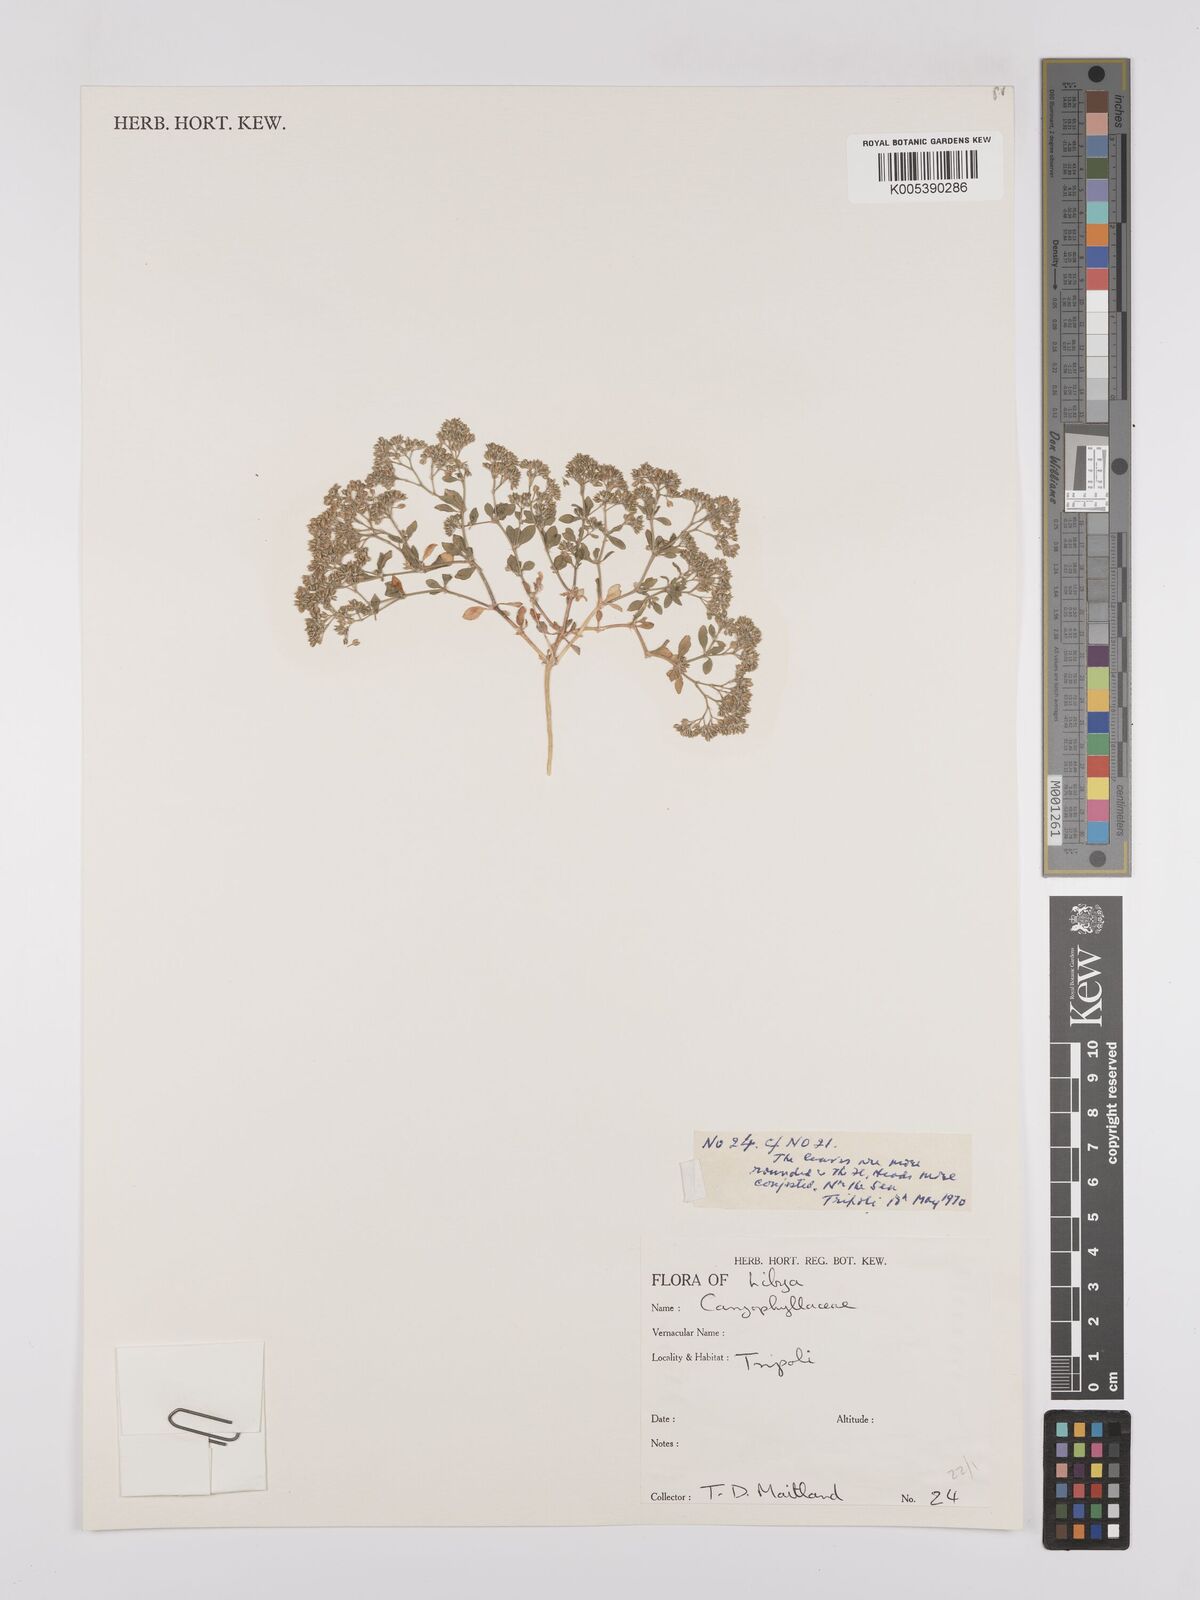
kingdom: Plantae
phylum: Tracheophyta
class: Magnoliopsida
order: Caryophyllales
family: Caryophyllaceae
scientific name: Caryophyllaceae
